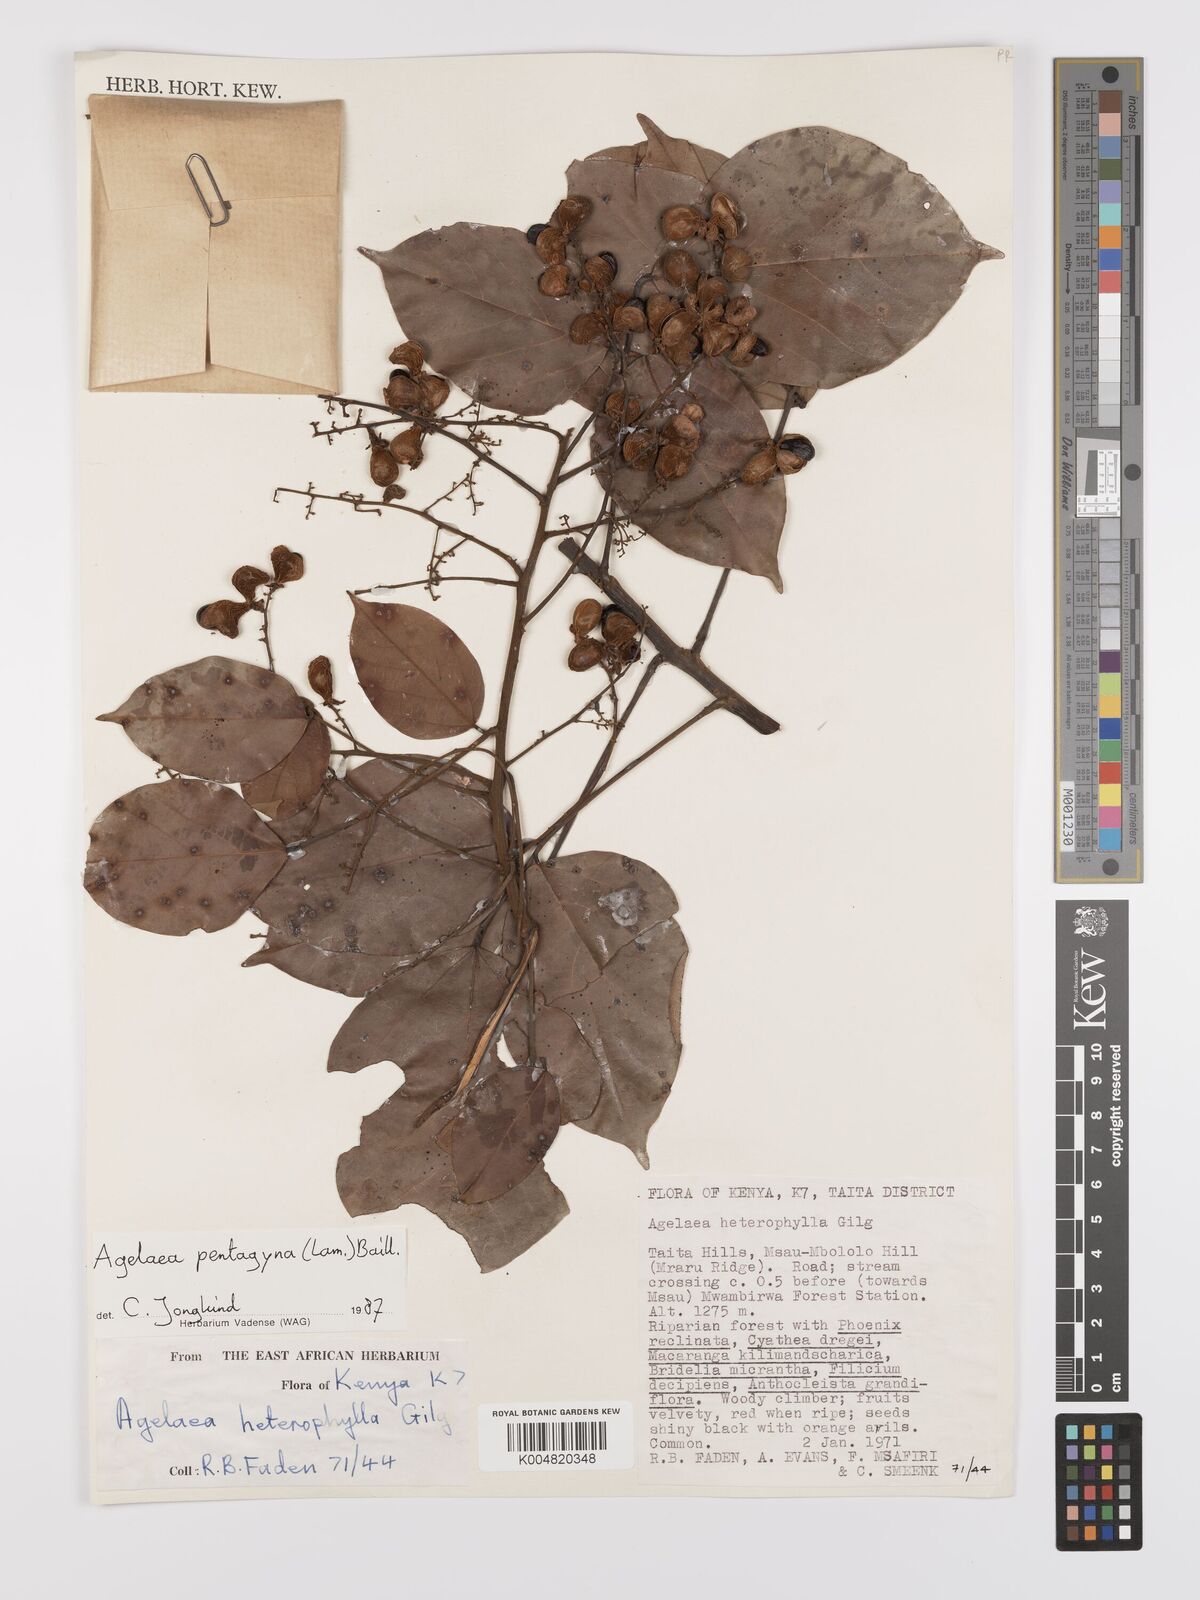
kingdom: Plantae
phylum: Tracheophyta
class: Magnoliopsida
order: Oxalidales
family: Connaraceae
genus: Agelaea
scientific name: Agelaea pentagyna
